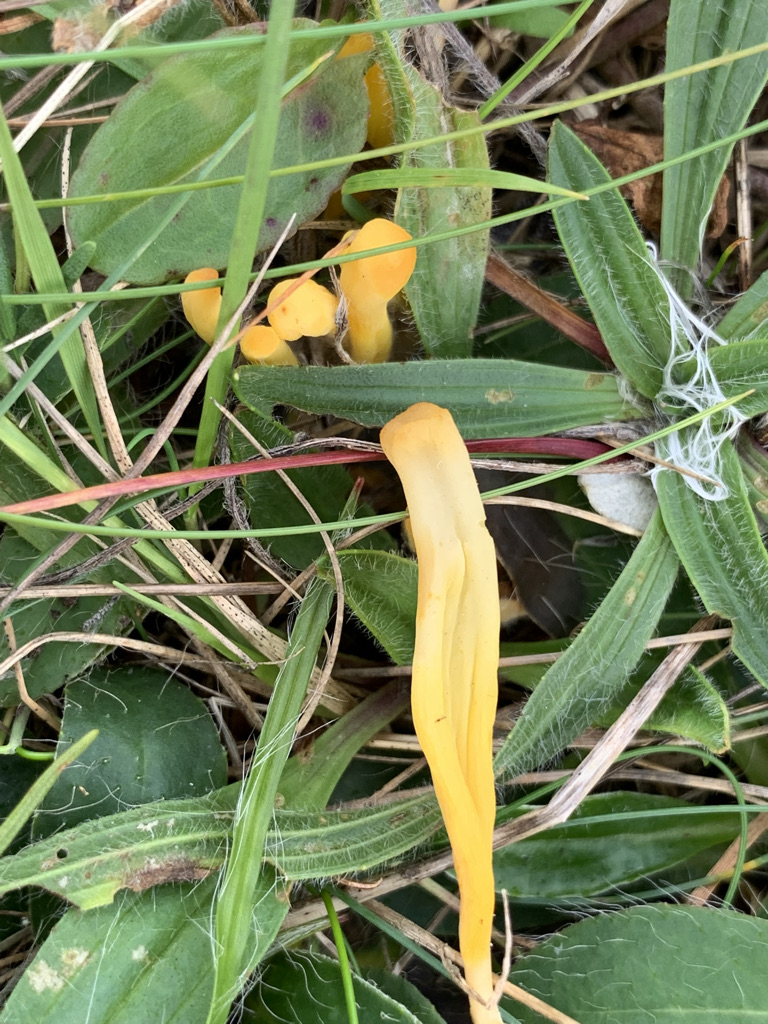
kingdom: Fungi
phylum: Basidiomycota
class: Agaricomycetes
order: Agaricales
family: Clavariaceae
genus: Clavulinopsis
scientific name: Clavulinopsis luteoalba
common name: abrikos-køllesvamp
